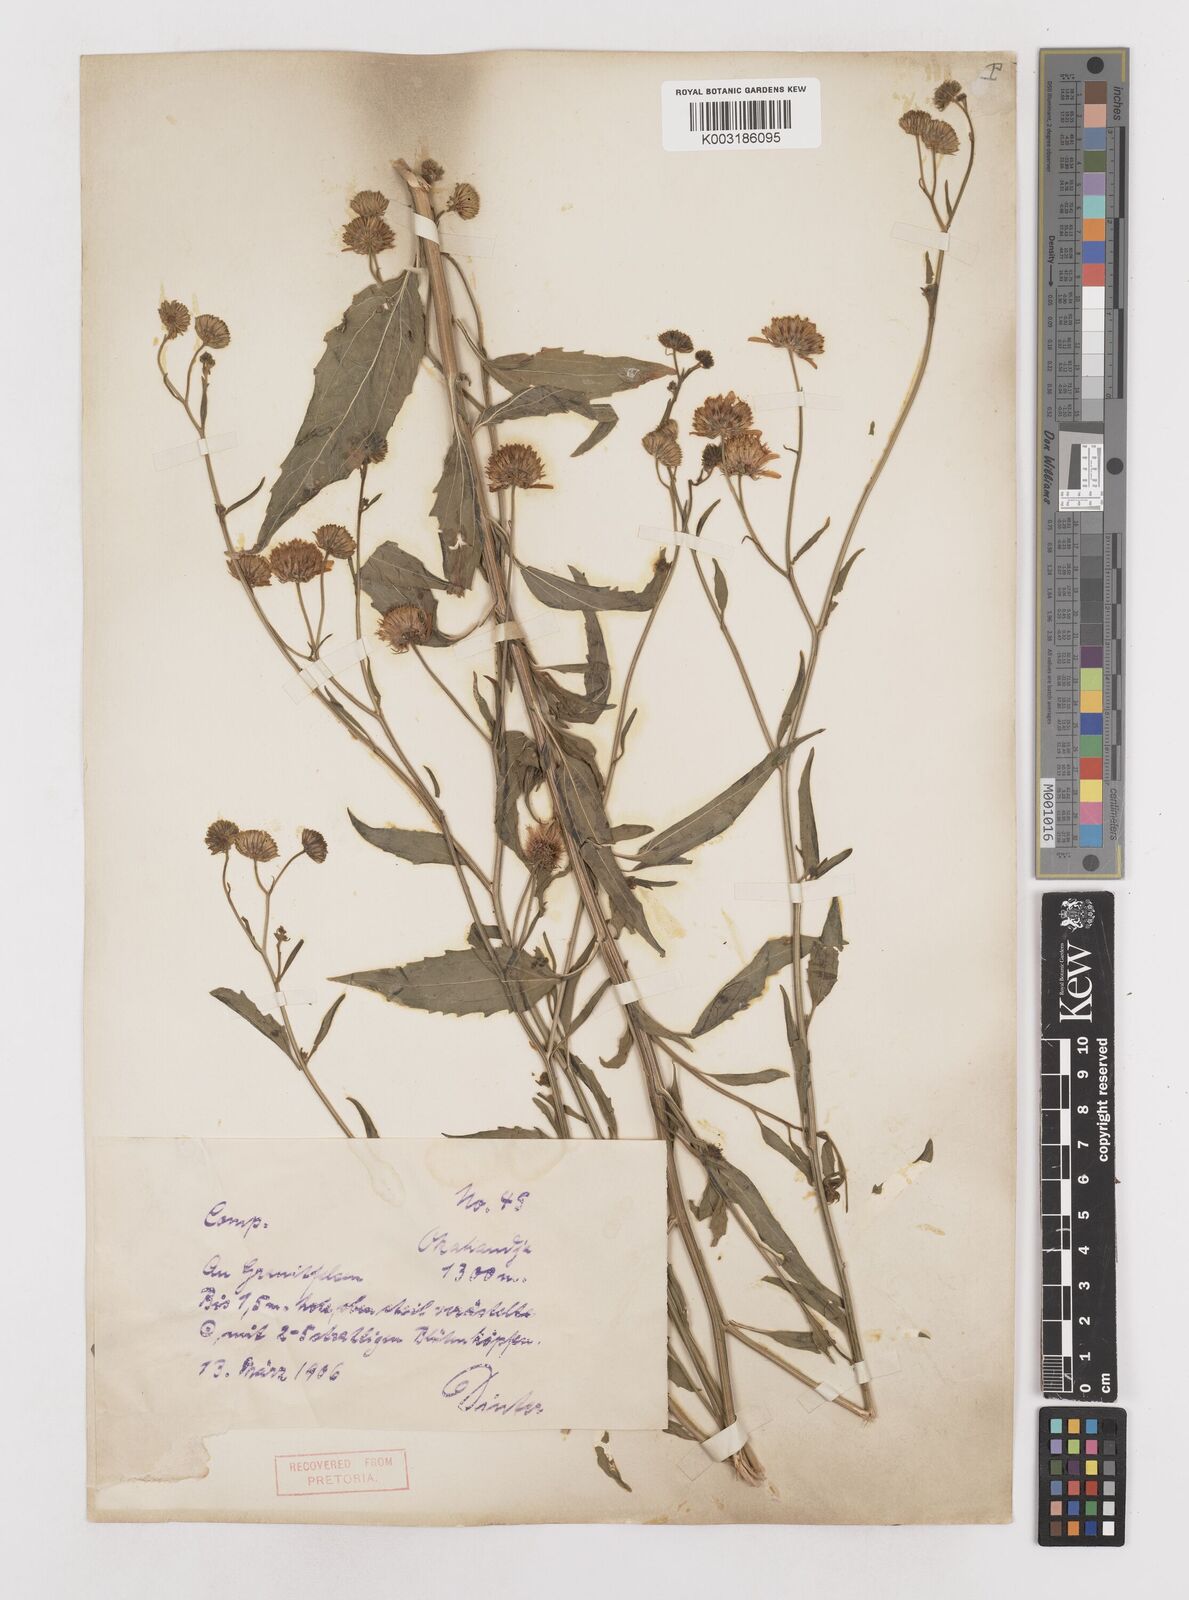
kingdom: Plantae
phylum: Tracheophyta
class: Magnoliopsida
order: Asterales
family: Asteraceae
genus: Calostephane
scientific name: Calostephane divaricata
